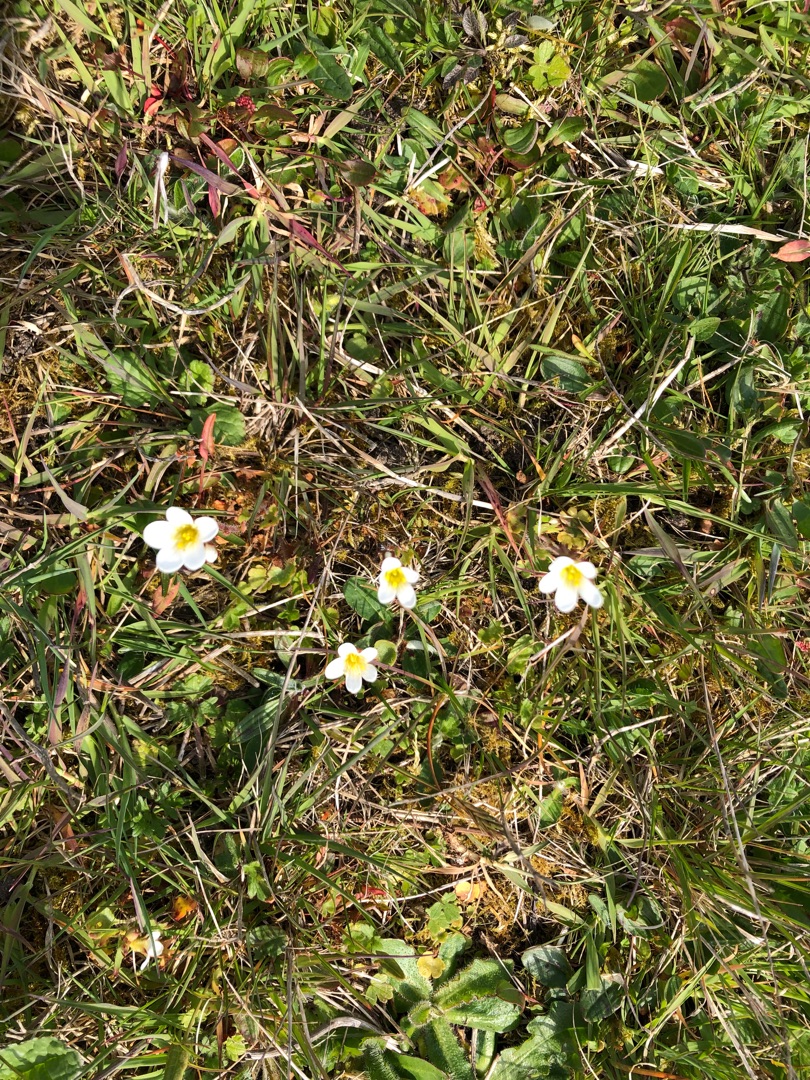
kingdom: Plantae
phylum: Tracheophyta
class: Magnoliopsida
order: Saxifragales
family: Saxifragaceae
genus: Saxifraga
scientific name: Saxifraga granulata
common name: Kornet stenbræk
